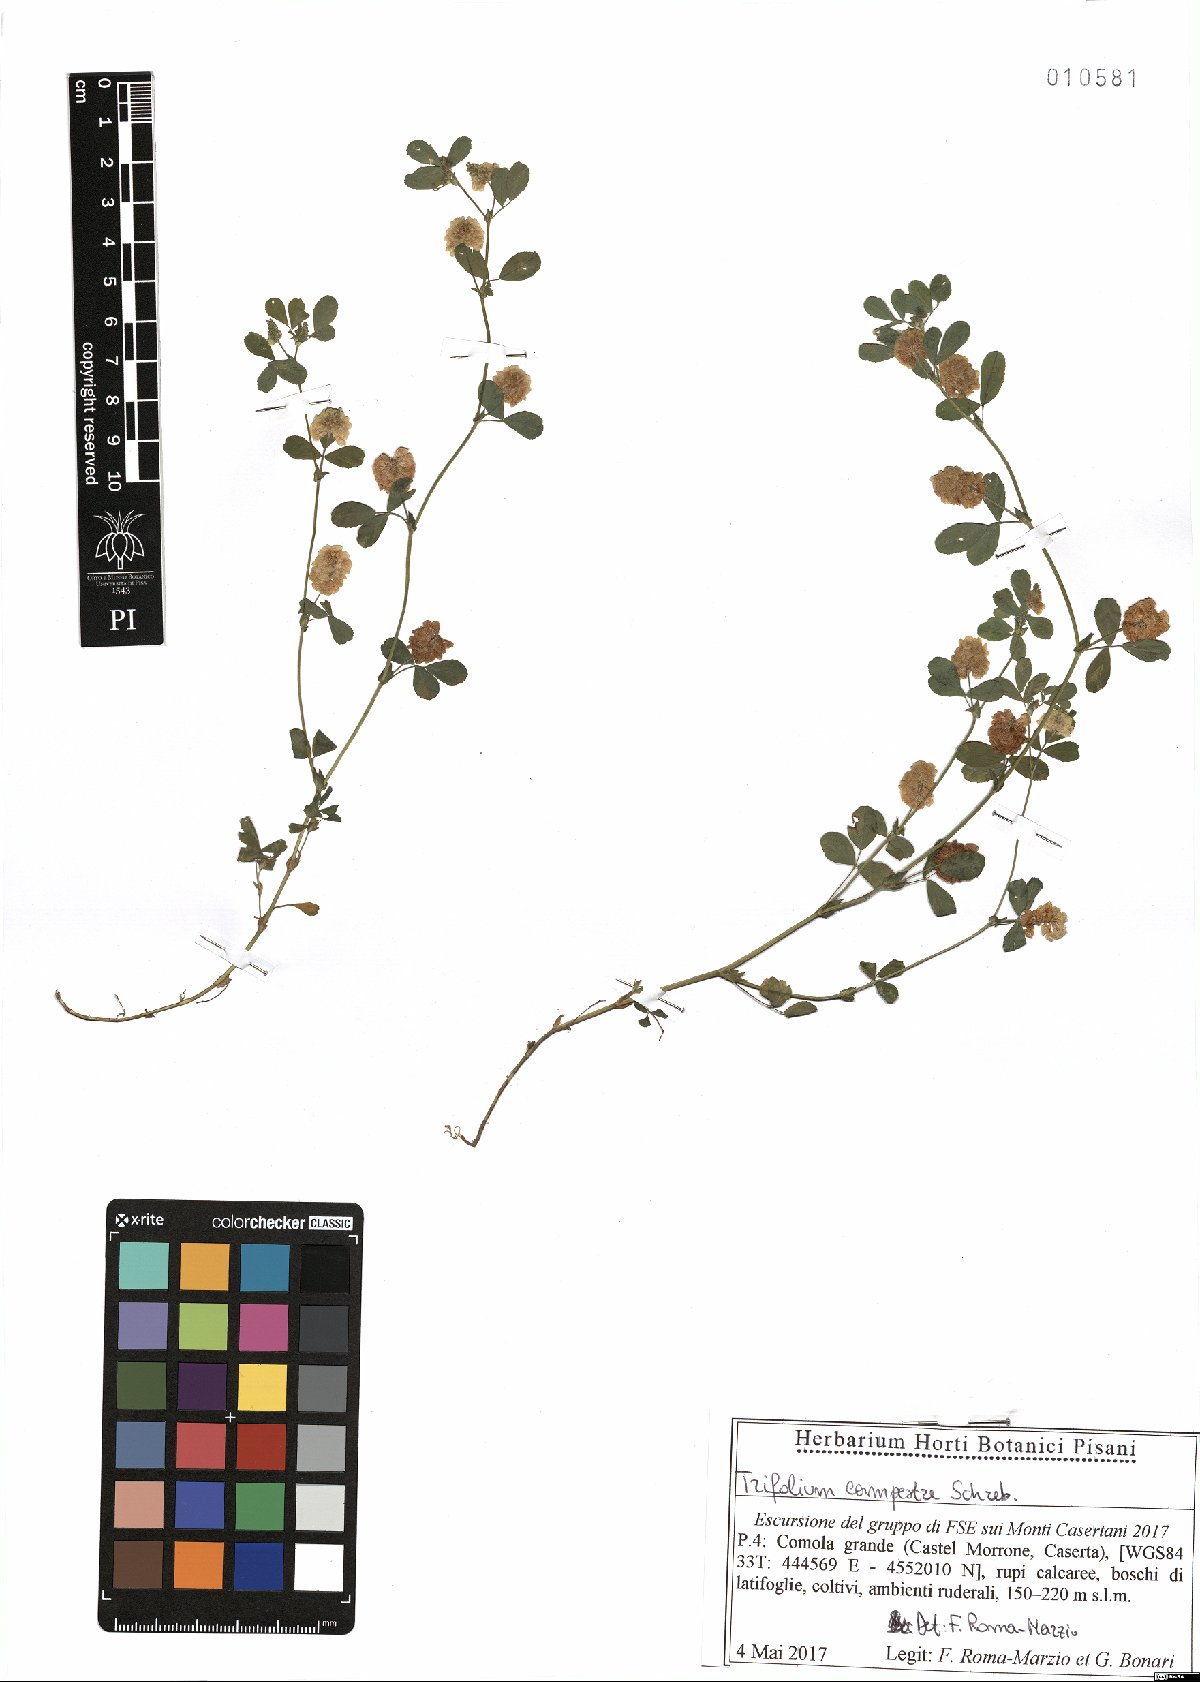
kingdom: Plantae
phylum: Tracheophyta
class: Magnoliopsida
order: Fabales
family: Fabaceae
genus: Trifolium
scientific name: Trifolium campestre
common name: Field clover
